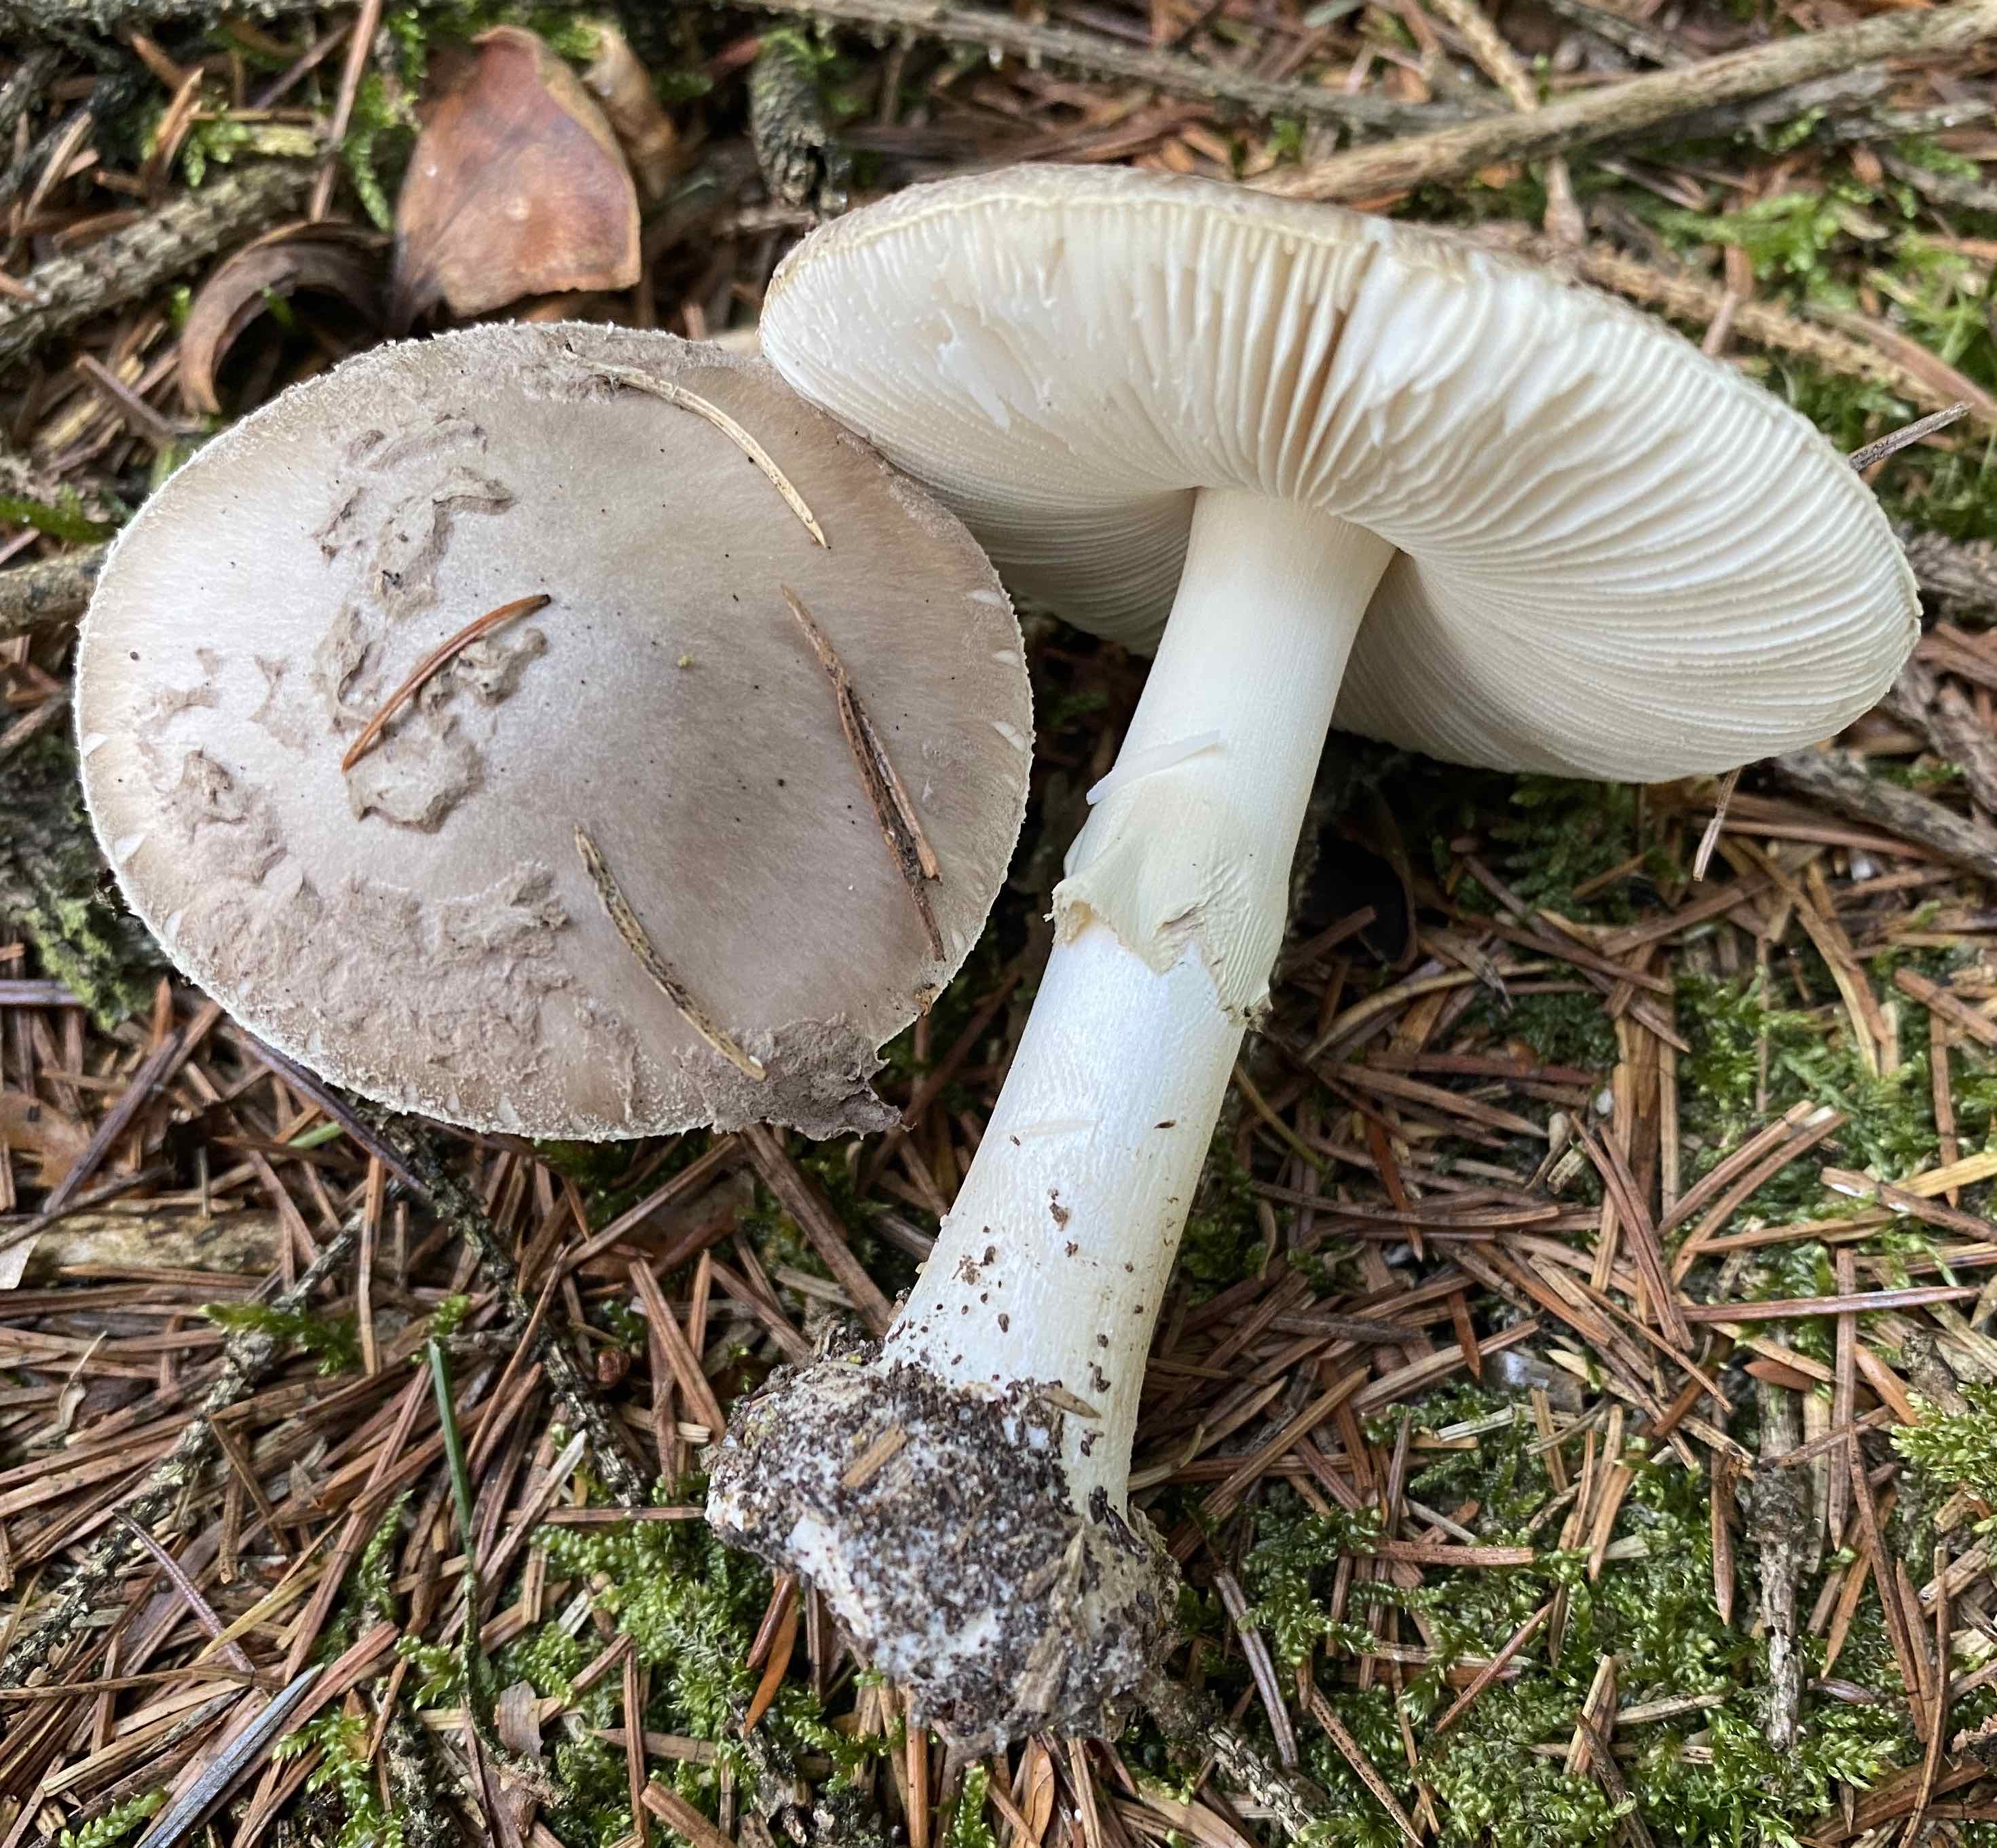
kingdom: Fungi
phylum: Basidiomycota
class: Agaricomycetes
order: Agaricales
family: Amanitaceae
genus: Amanita
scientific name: Amanita
